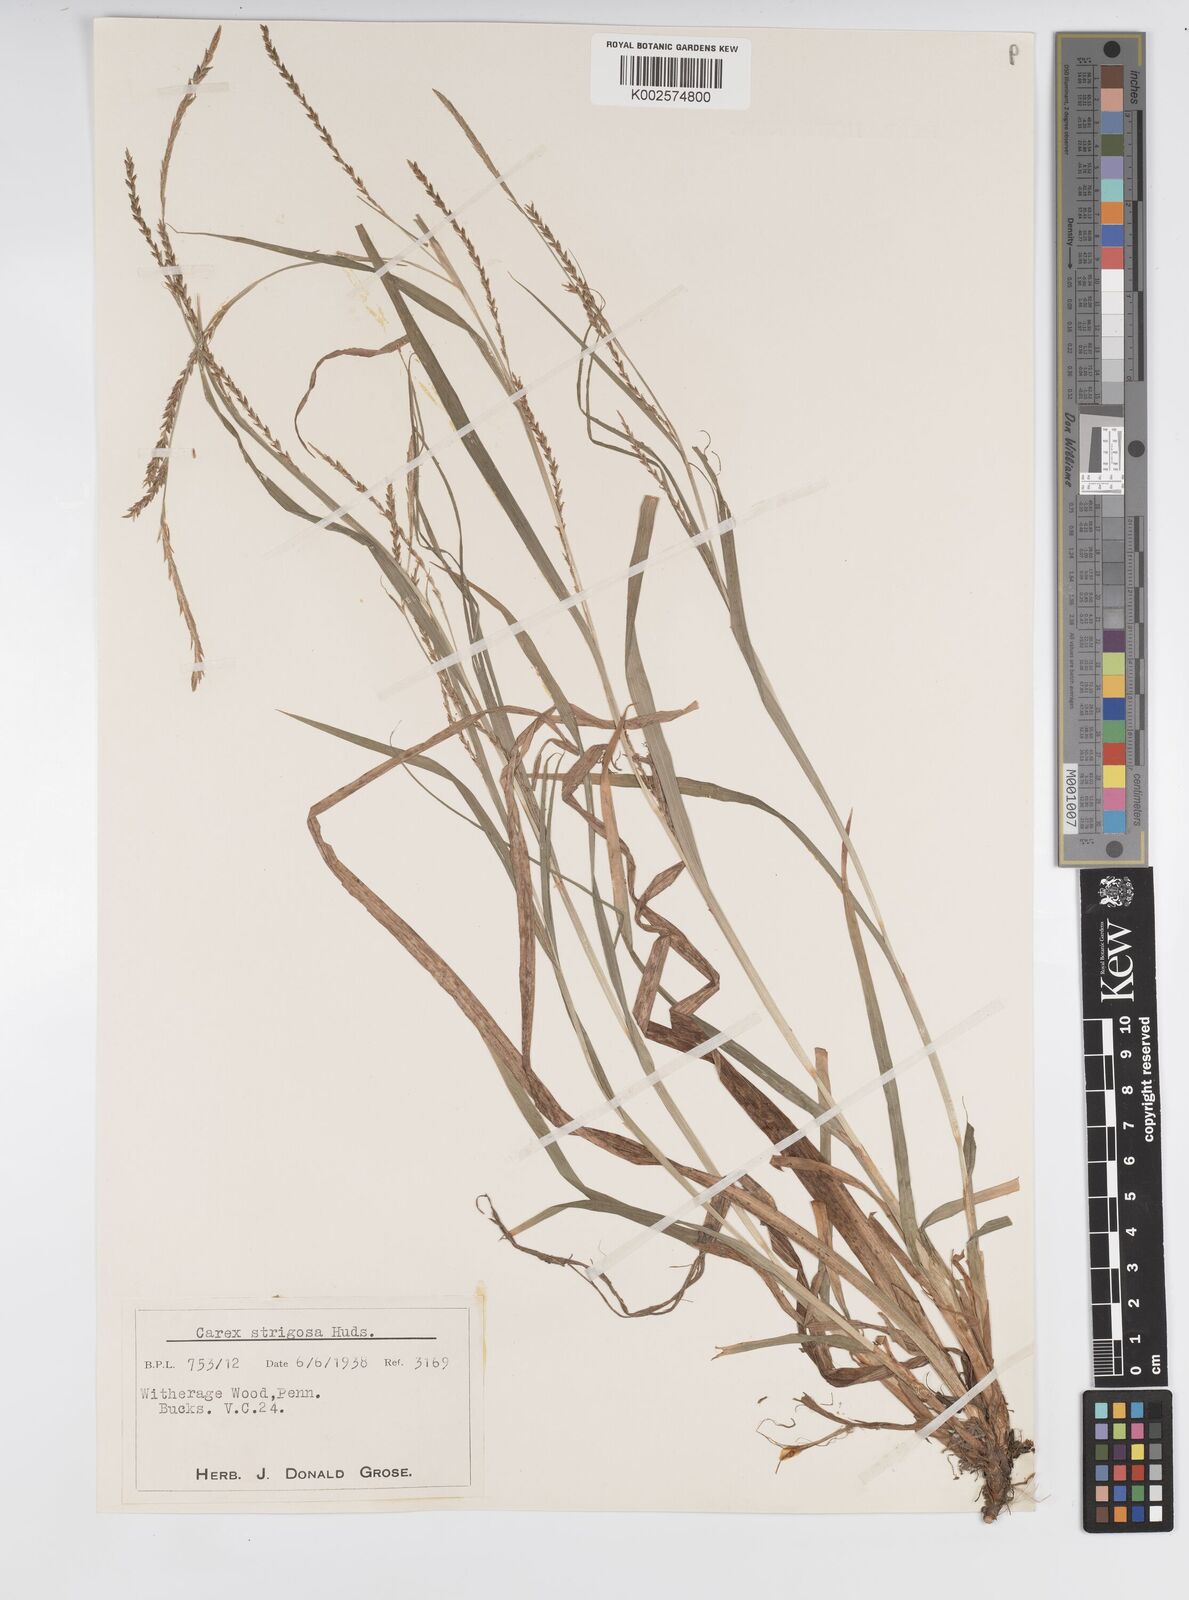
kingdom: Plantae
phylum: Tracheophyta
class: Liliopsida
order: Poales
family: Cyperaceae
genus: Carex
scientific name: Carex strigosa
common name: Thin-spiked wood-sedge
